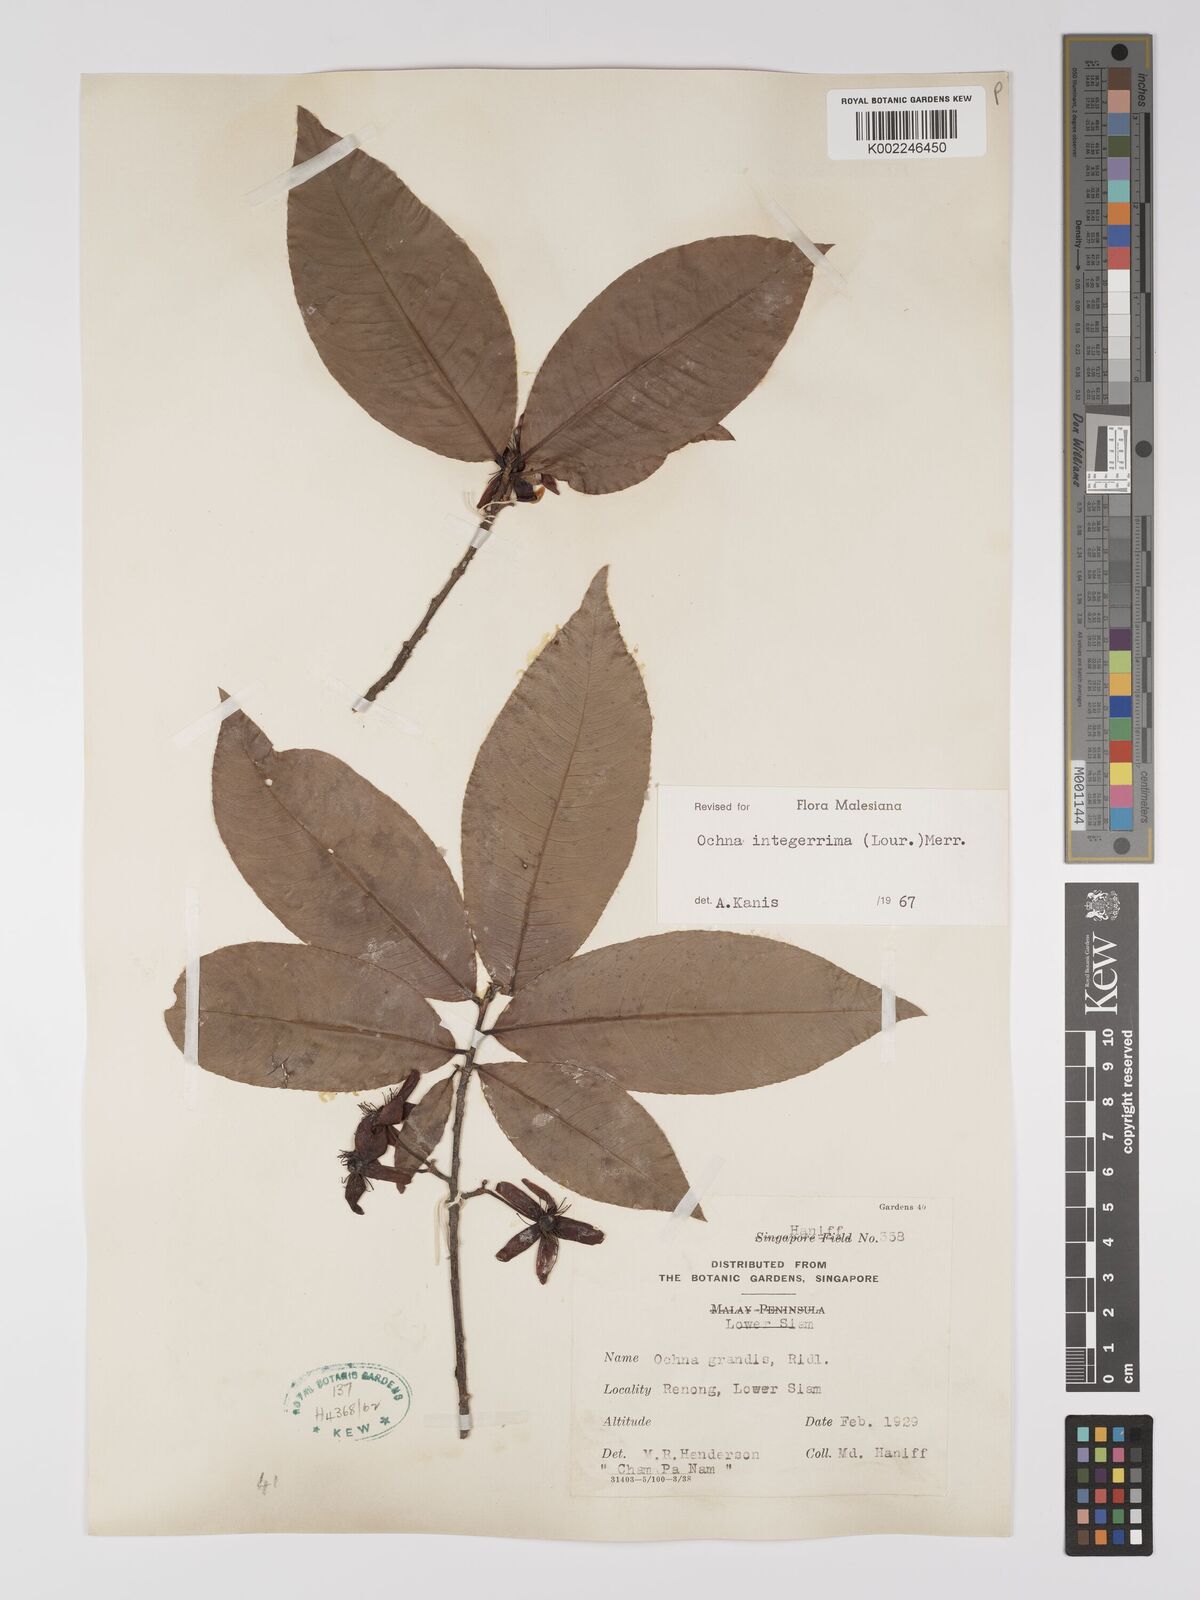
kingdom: Plantae
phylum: Tracheophyta
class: Magnoliopsida
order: Malpighiales
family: Ochnaceae
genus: Ochna
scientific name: Ochna integerrima
